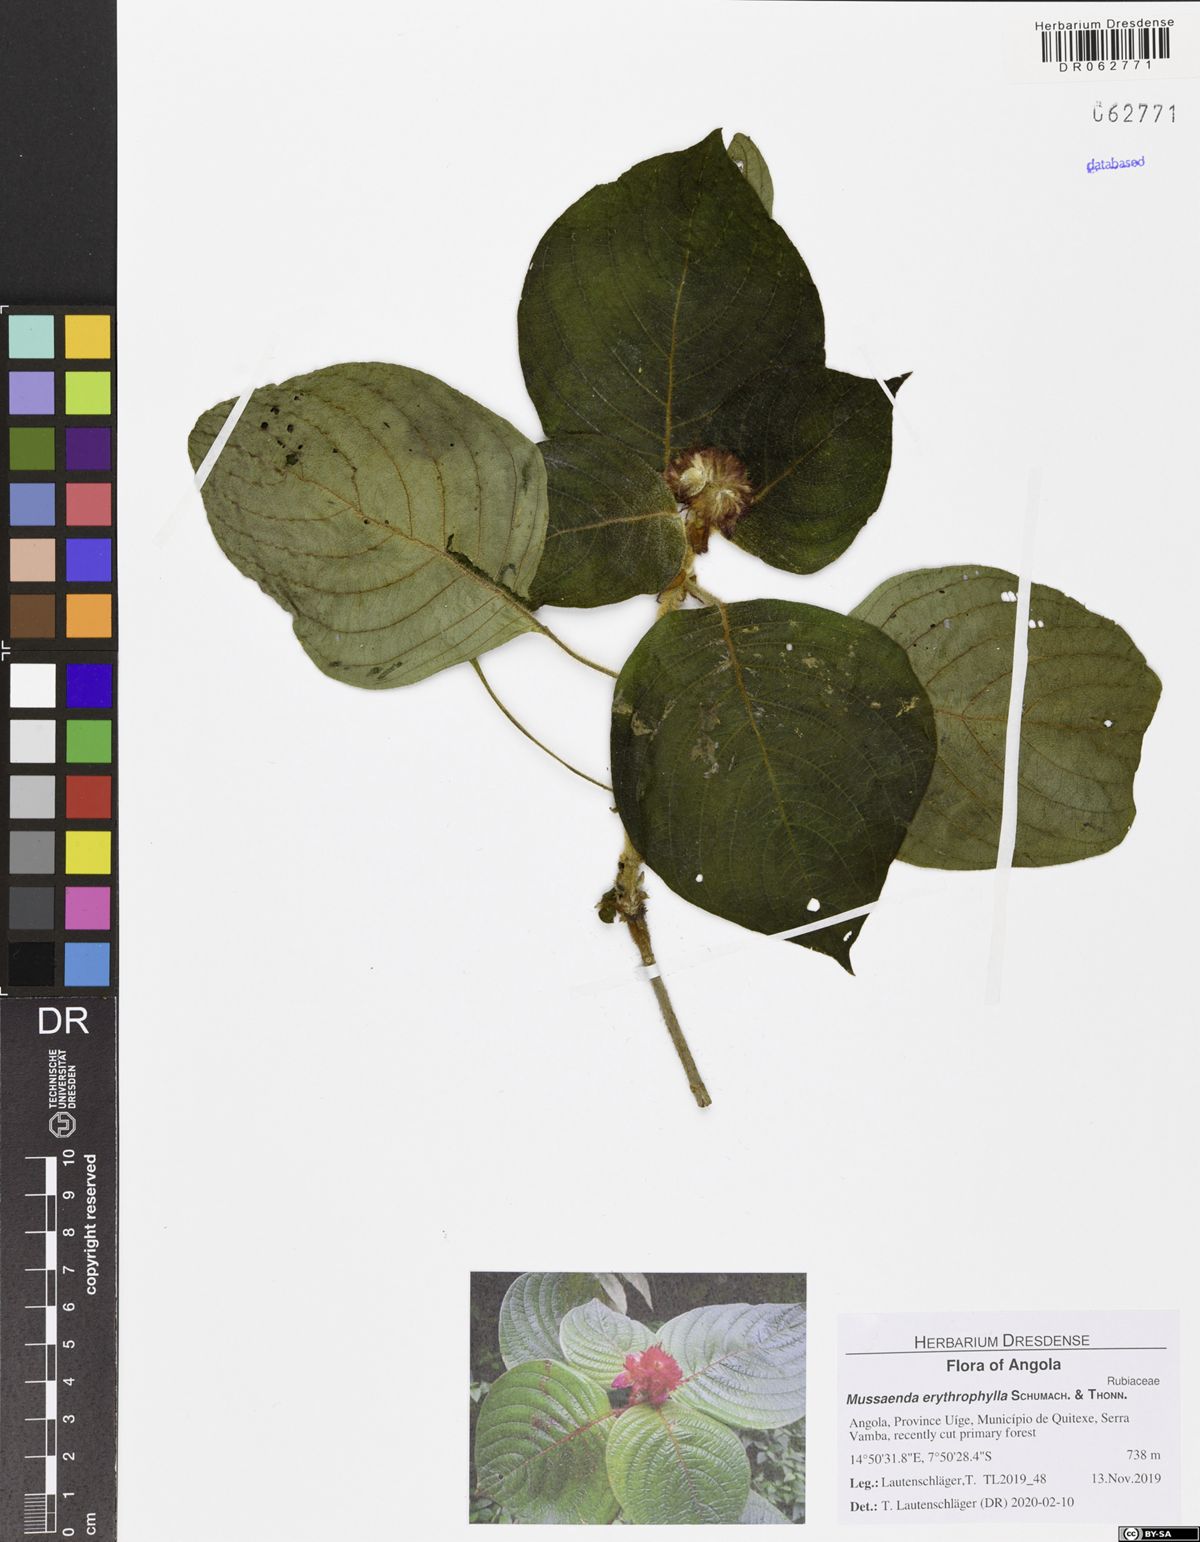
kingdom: Plantae
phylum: Tracheophyta
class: Magnoliopsida
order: Gentianales
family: Rubiaceae
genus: Mussaenda
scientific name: Mussaenda erythrophylla
